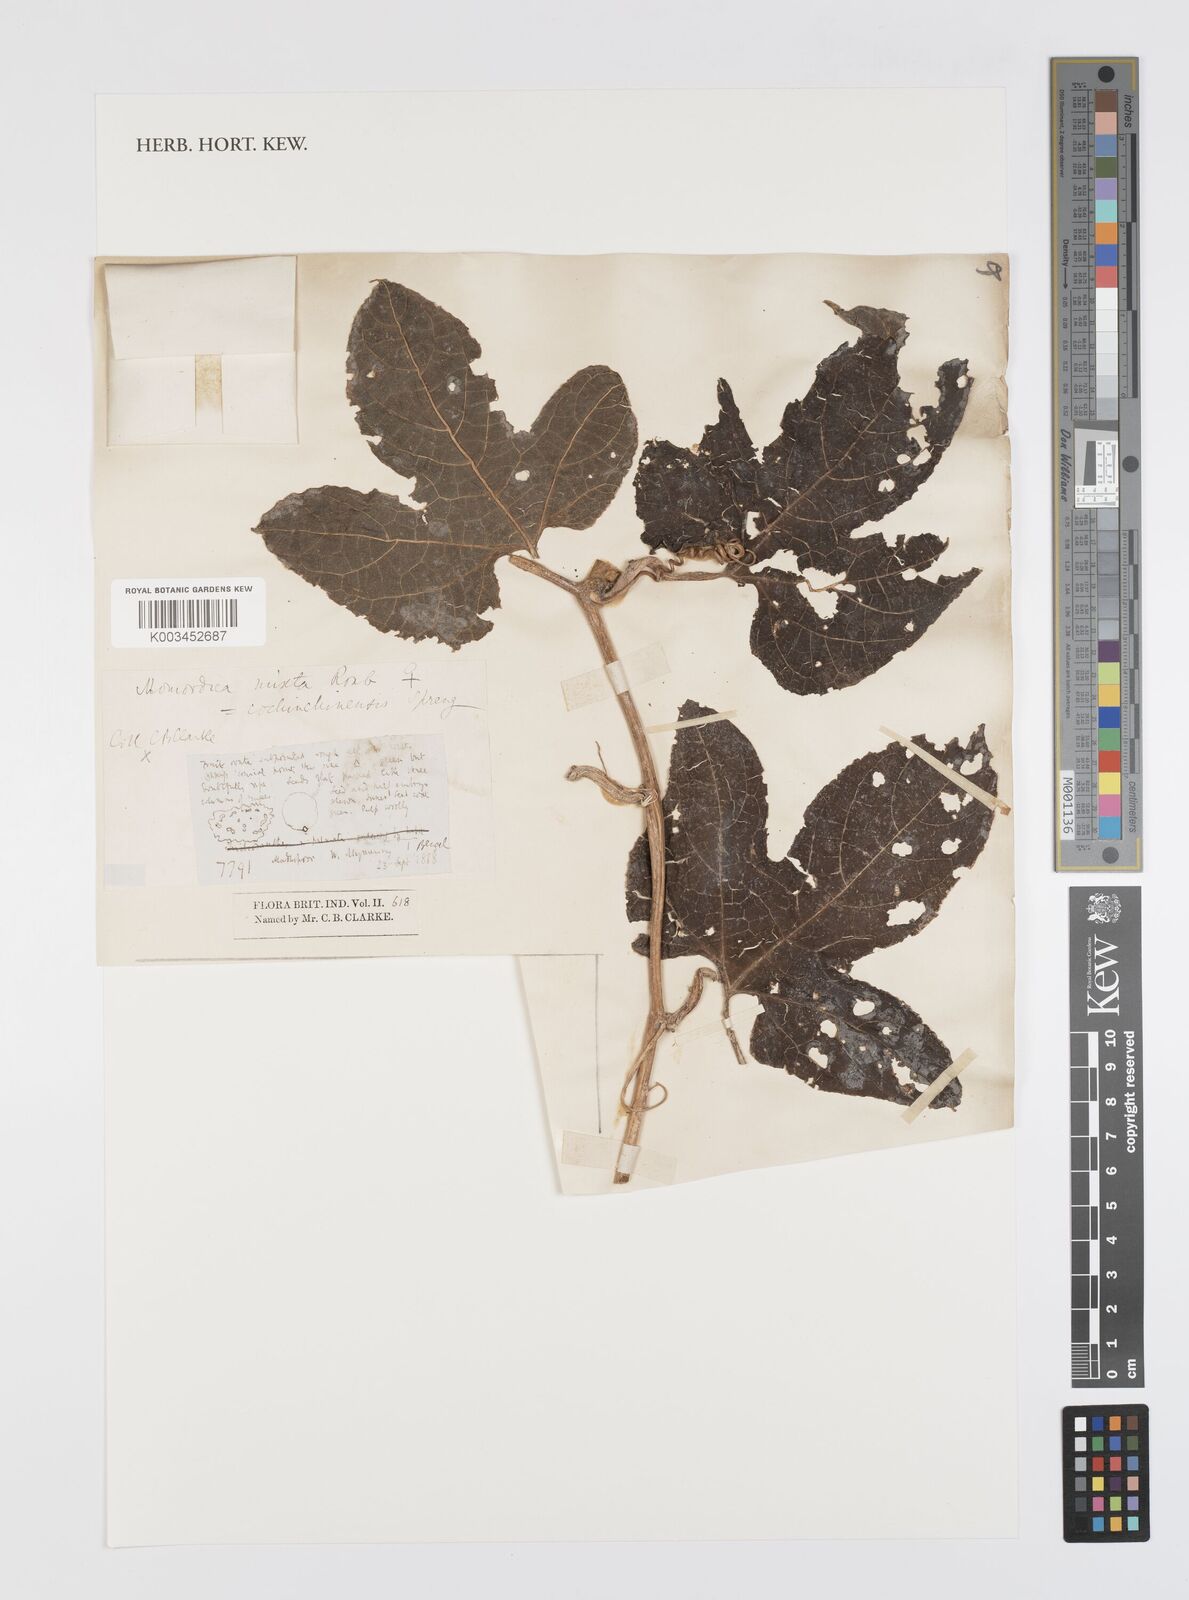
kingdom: Plantae
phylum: Tracheophyta
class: Magnoliopsida
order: Cucurbitales
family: Cucurbitaceae
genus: Momordica
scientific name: Momordica cochinchinensis
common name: Chinese bitter-cucumber
